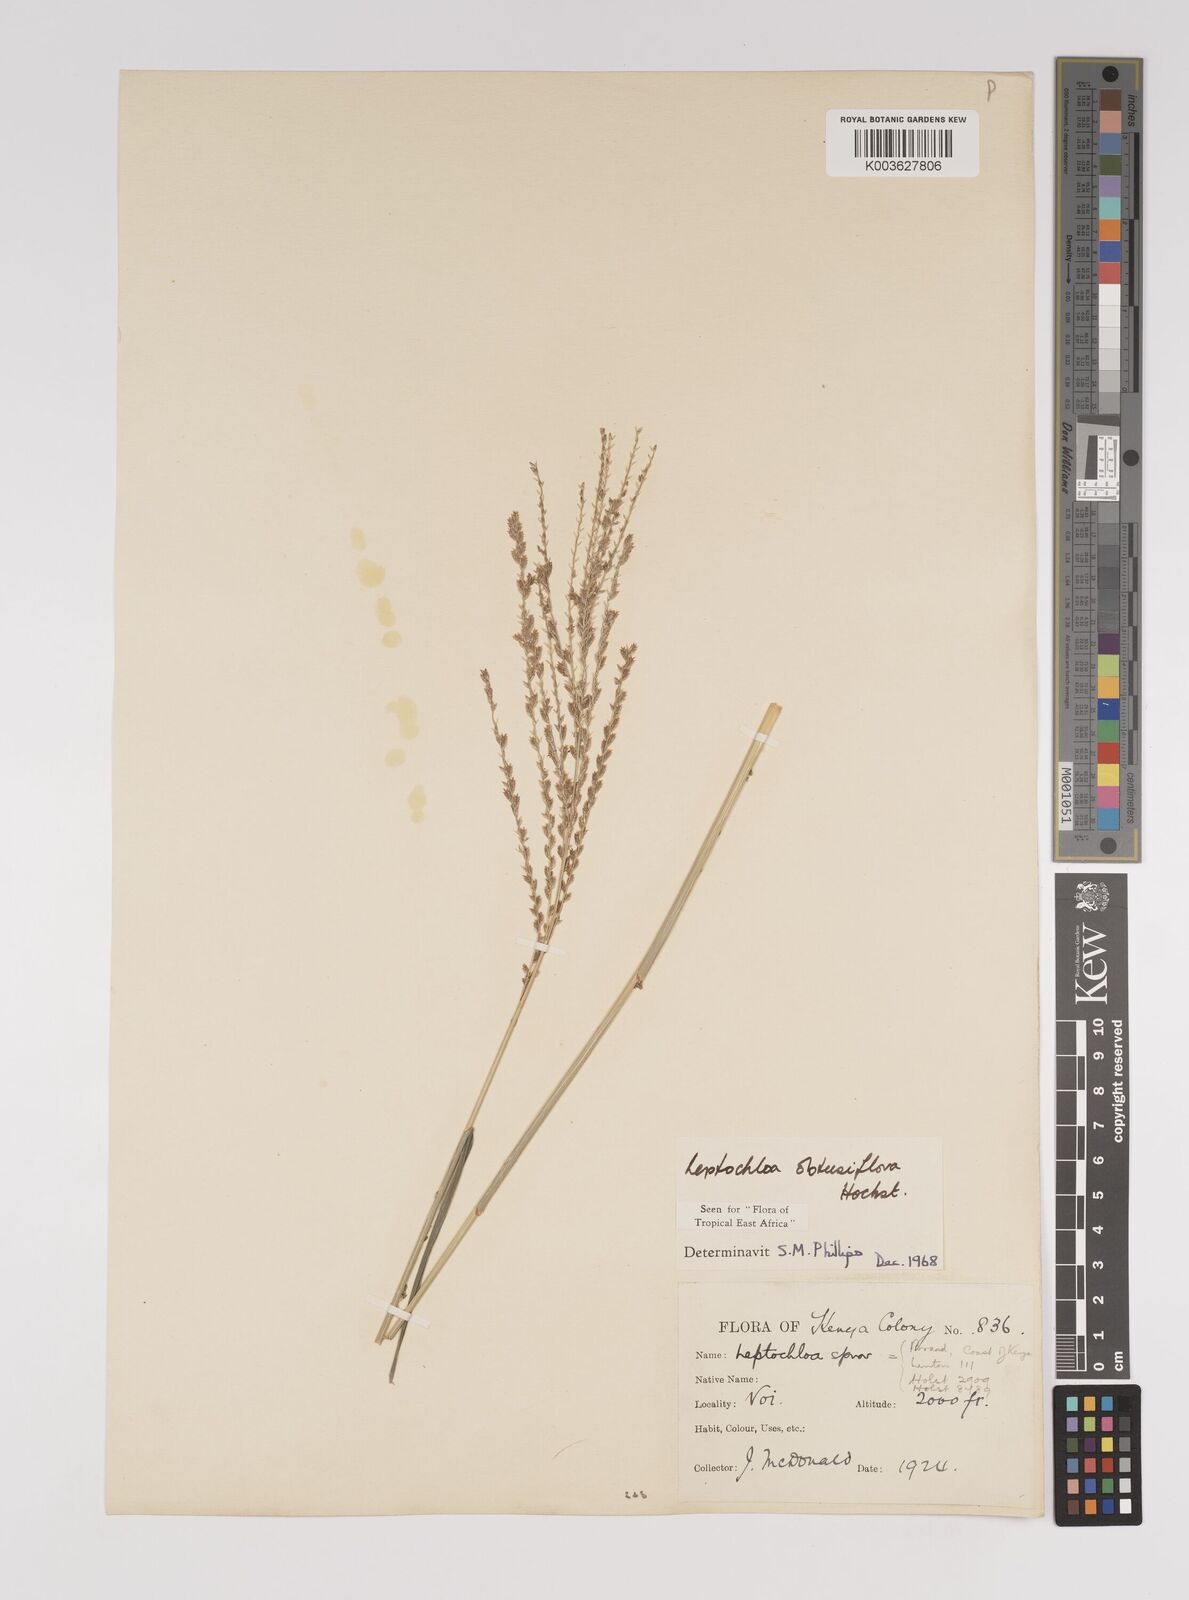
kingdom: Plantae
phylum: Tracheophyta
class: Liliopsida
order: Poales
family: Poaceae
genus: Disakisperma
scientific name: Disakisperma obtusiflorum
